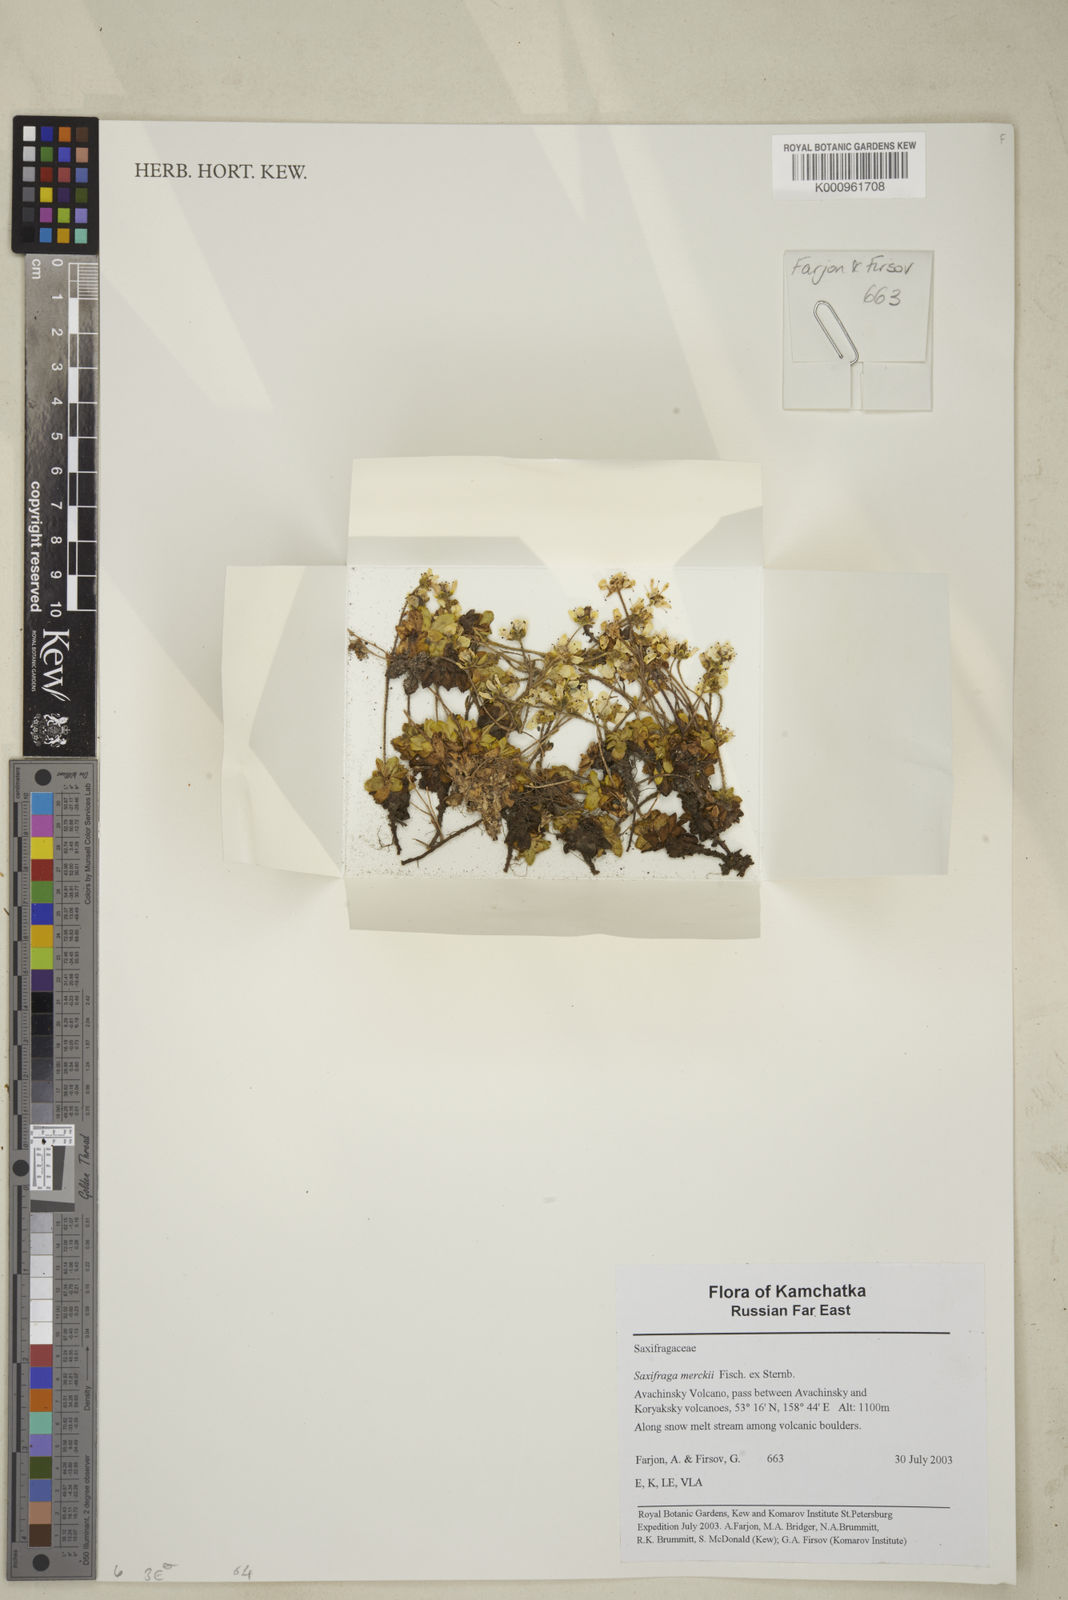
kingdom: Plantae
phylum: Tracheophyta
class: Magnoliopsida
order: Saxifragales
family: Saxifragaceae
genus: Micranthes
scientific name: Micranthes merkii
